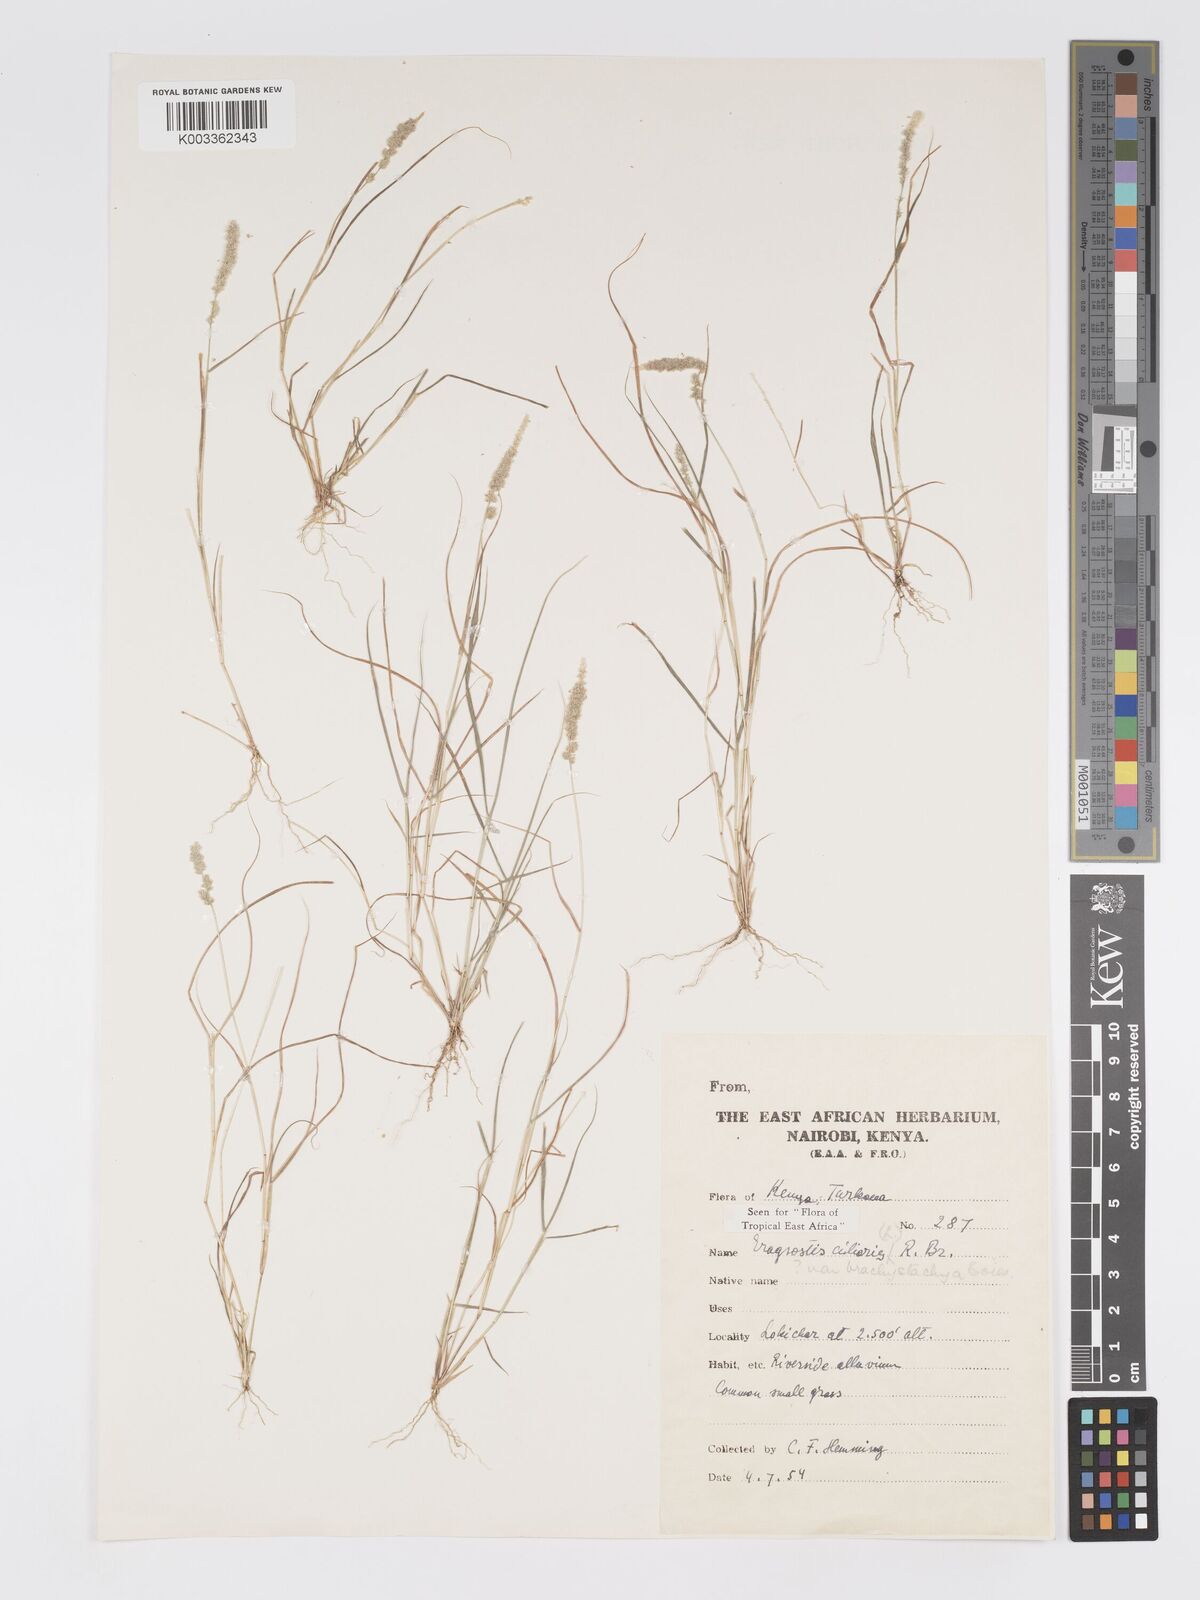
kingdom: Plantae
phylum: Tracheophyta
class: Liliopsida
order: Poales
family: Poaceae
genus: Eragrostis
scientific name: Eragrostis ciliaris
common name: Gophertail lovegrass
